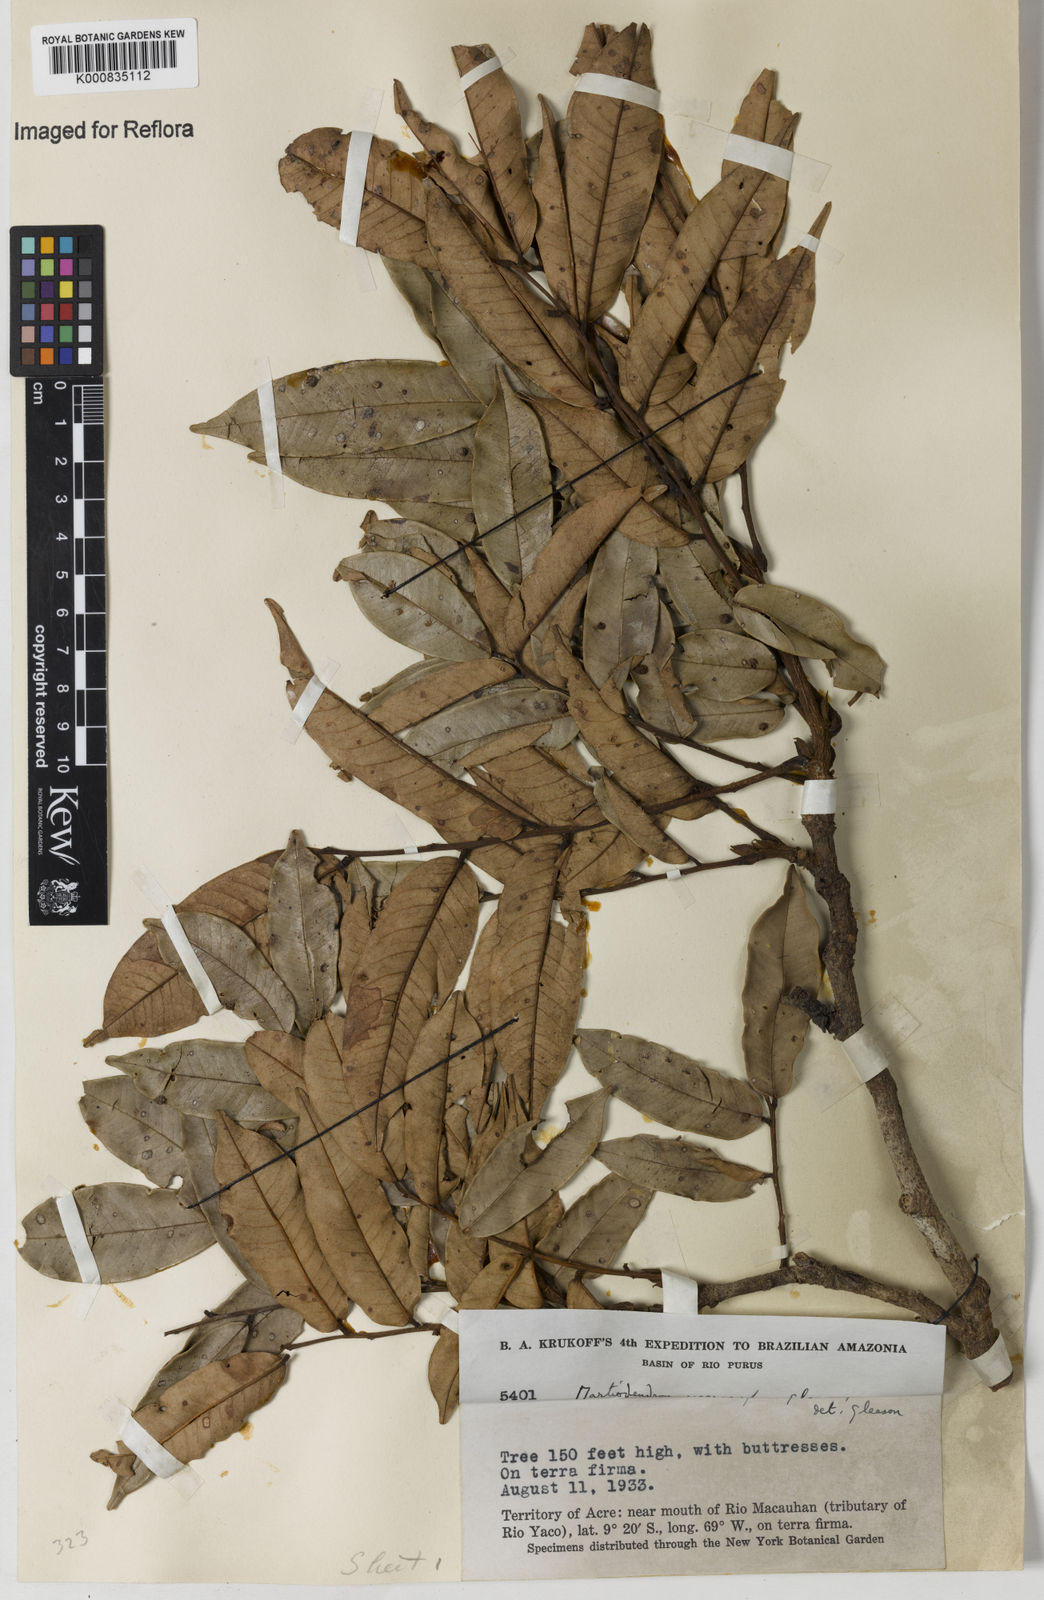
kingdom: Plantae
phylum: Tracheophyta
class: Magnoliopsida
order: Fabales
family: Fabaceae
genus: Martiodendron
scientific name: Martiodendron
